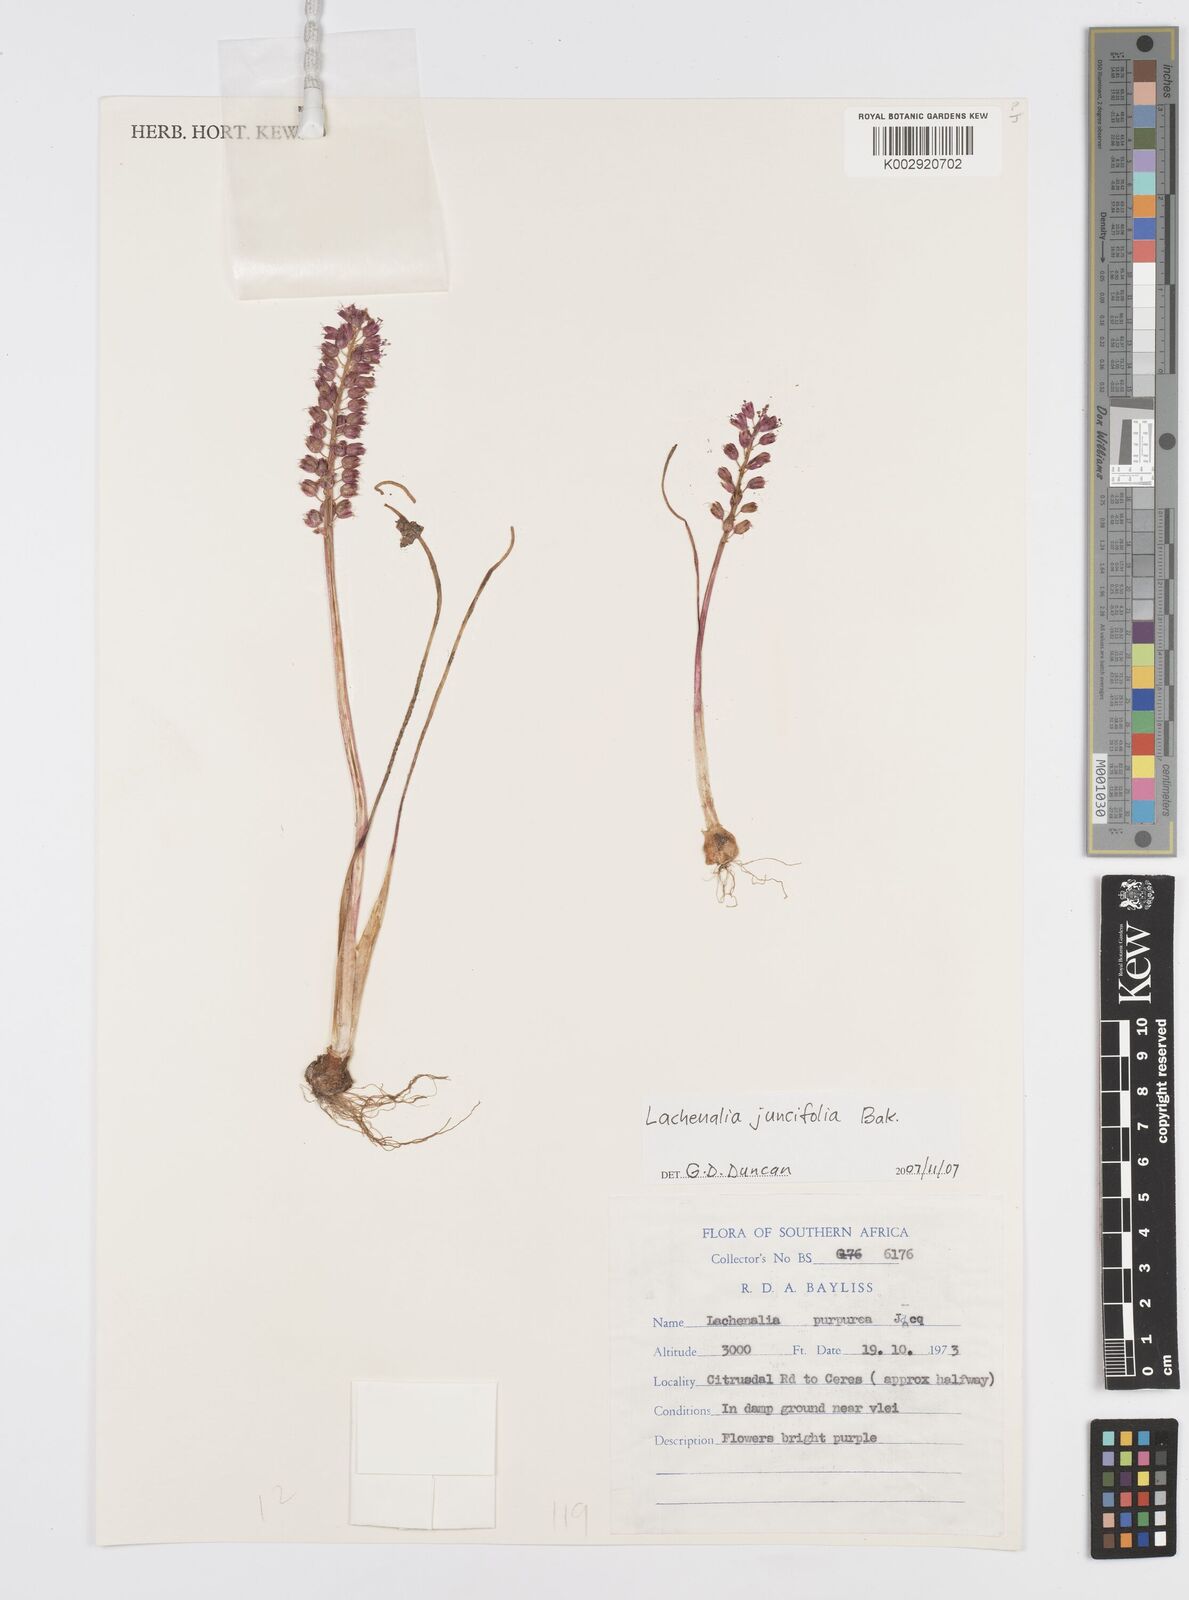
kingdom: Plantae
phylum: Tracheophyta
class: Liliopsida
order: Asparagales
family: Asparagaceae
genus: Lachenalia
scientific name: Lachenalia juncifolia
